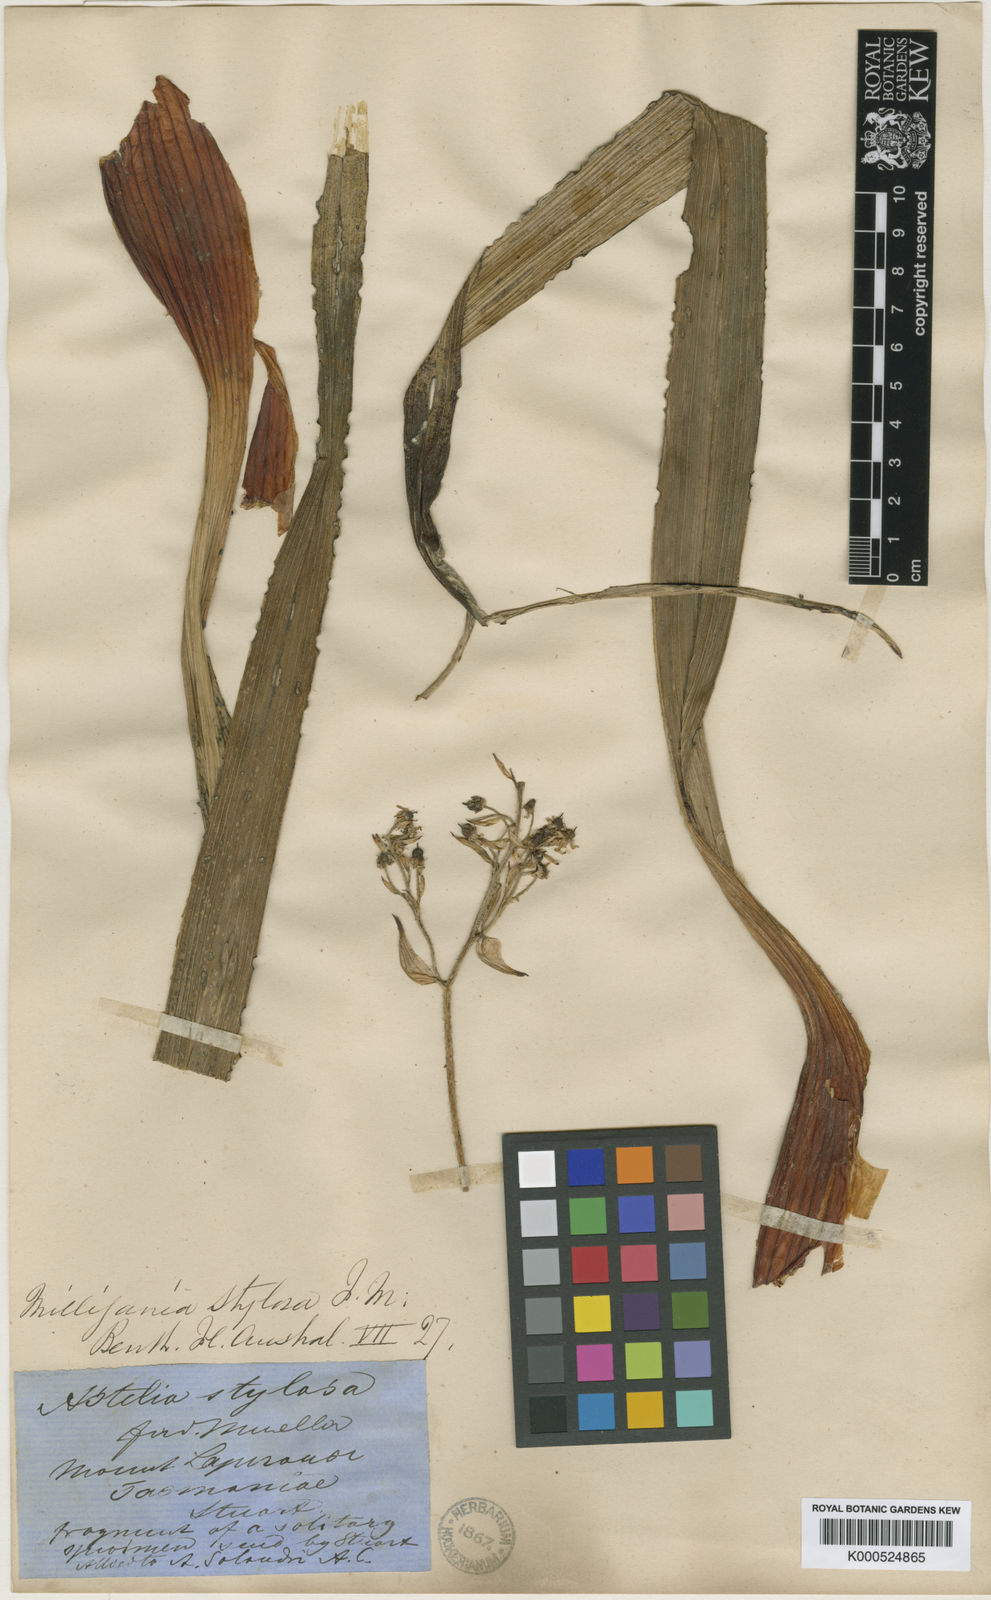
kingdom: Plantae
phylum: Tracheophyta
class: Liliopsida
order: Asparagales
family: Asteliaceae
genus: Milligania
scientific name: Milligania stylosa
